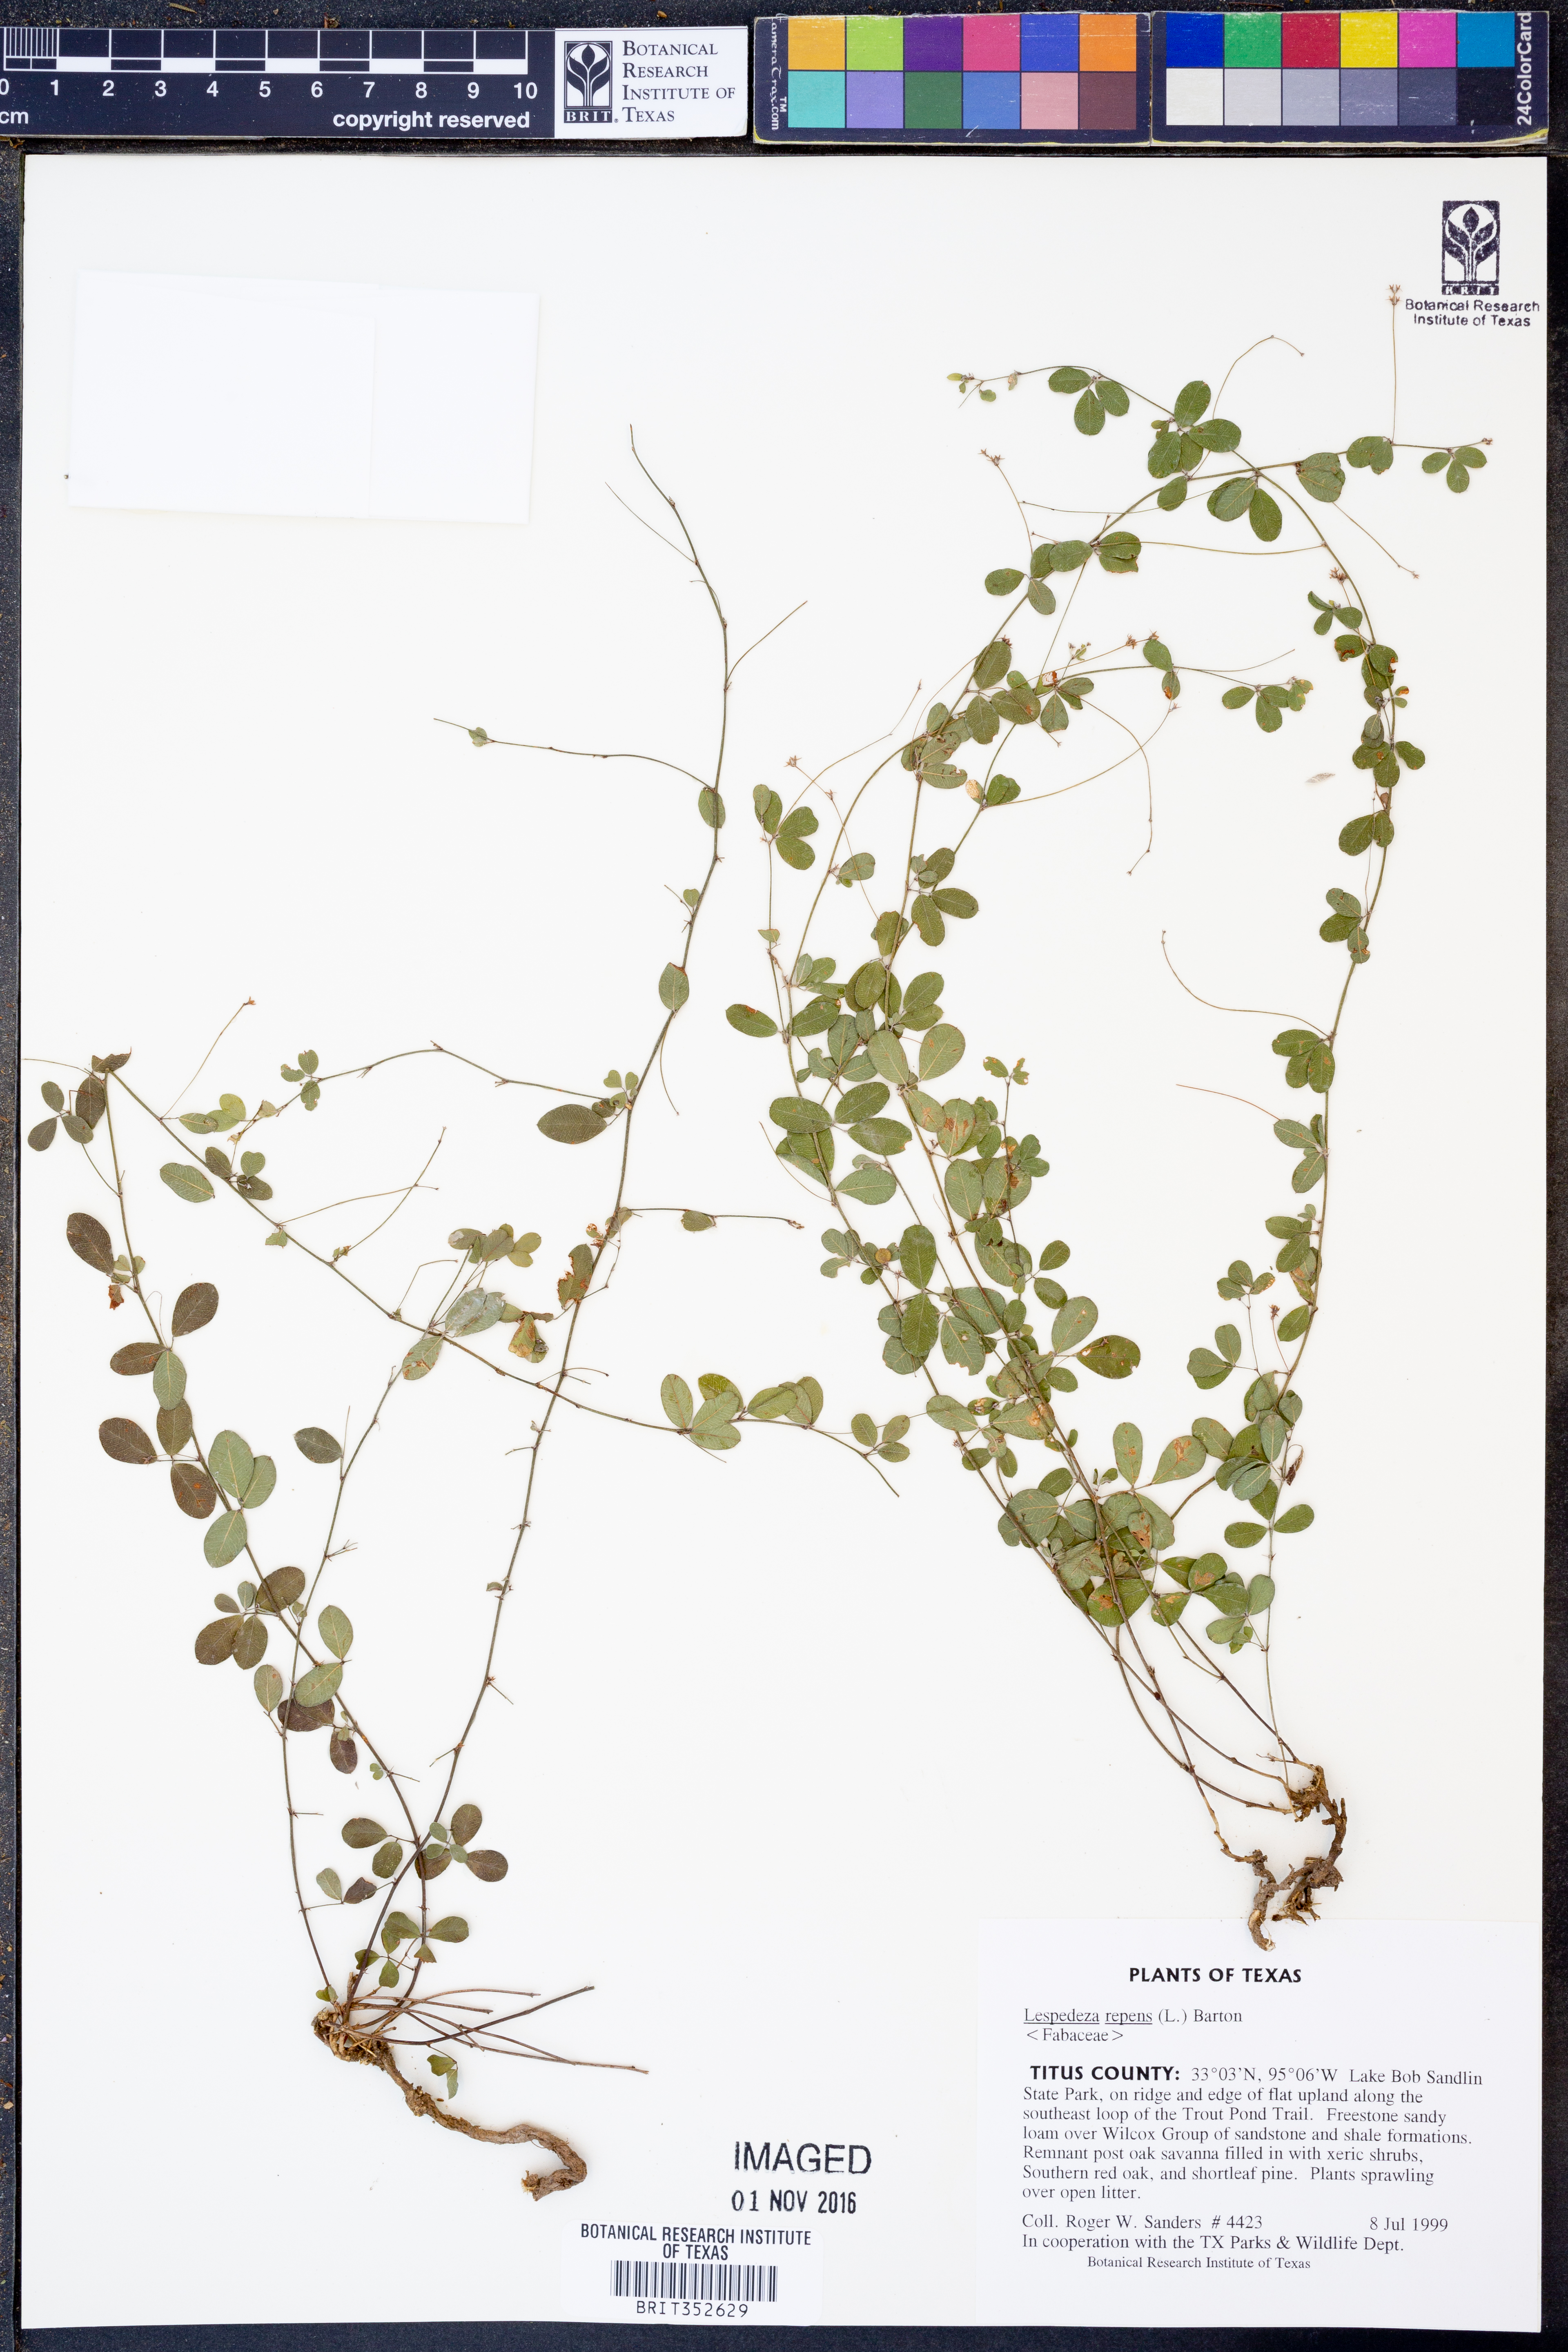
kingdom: Plantae
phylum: Tracheophyta
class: Magnoliopsida
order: Fabales
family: Fabaceae
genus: Lespedeza
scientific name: Lespedeza repens
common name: Creeping bush-clover
